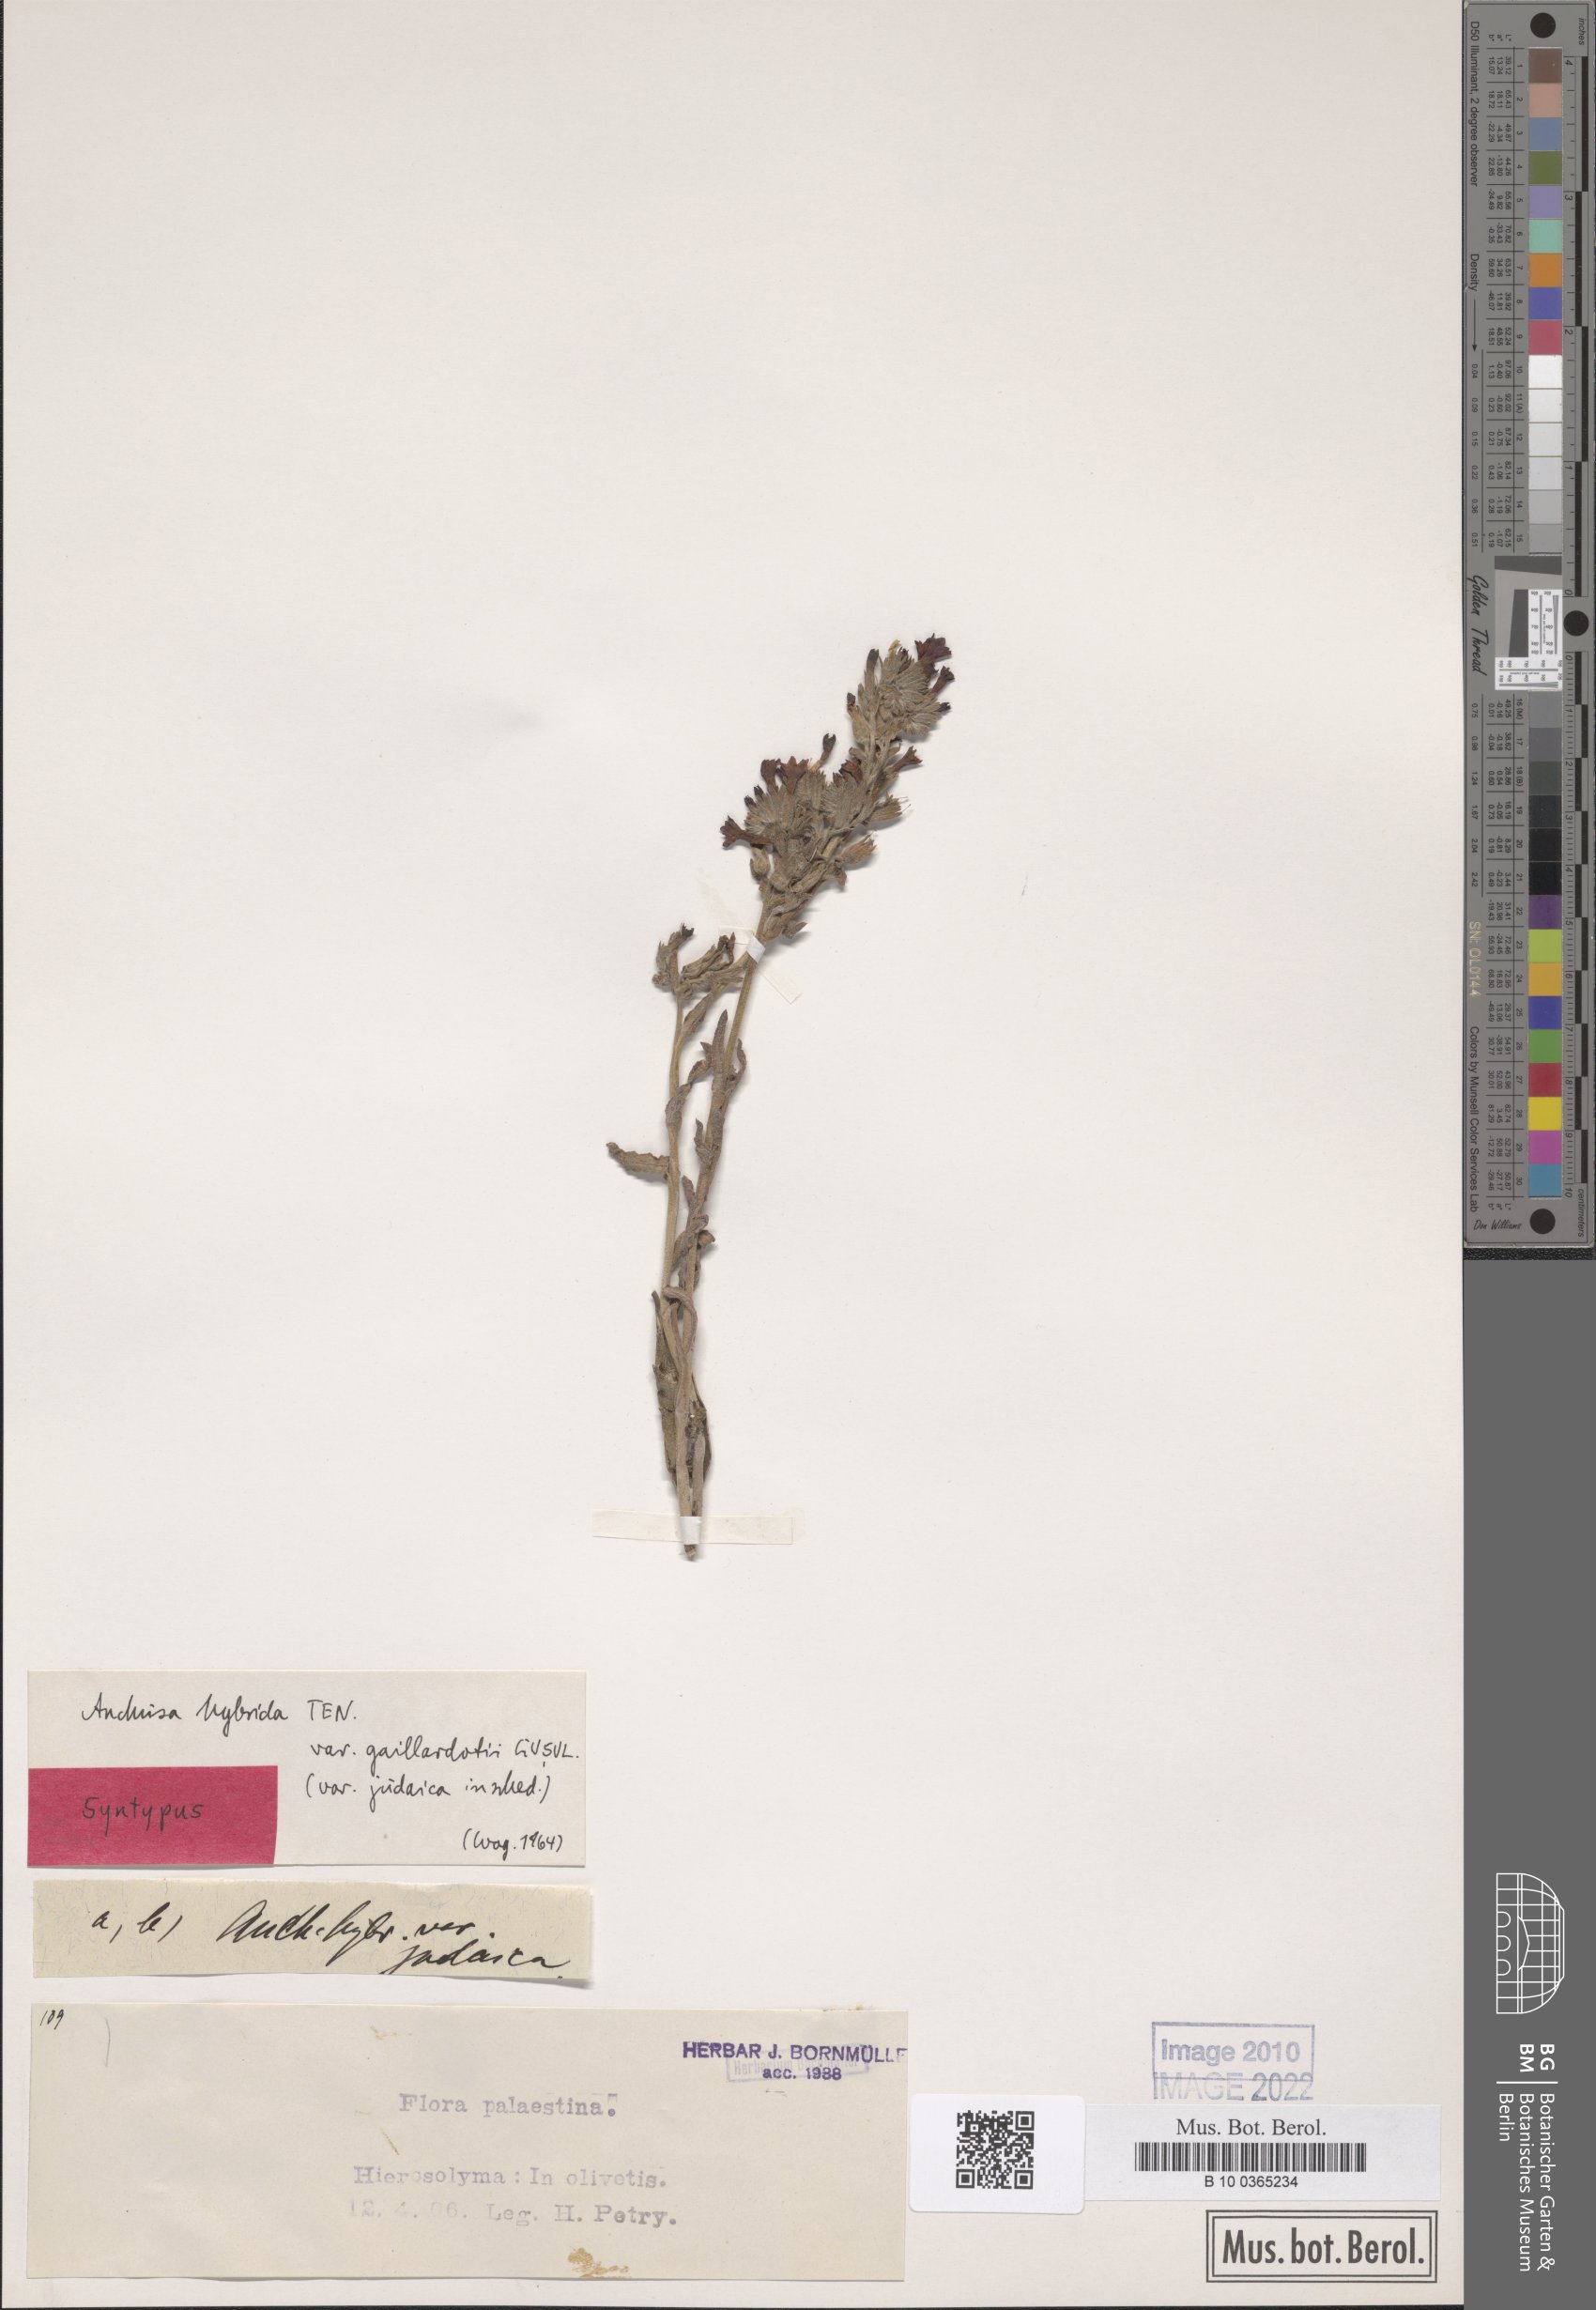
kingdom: Plantae
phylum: Tracheophyta
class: Magnoliopsida
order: Boraginales
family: Boraginaceae
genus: Anchusa
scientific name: Anchusa hybrida
